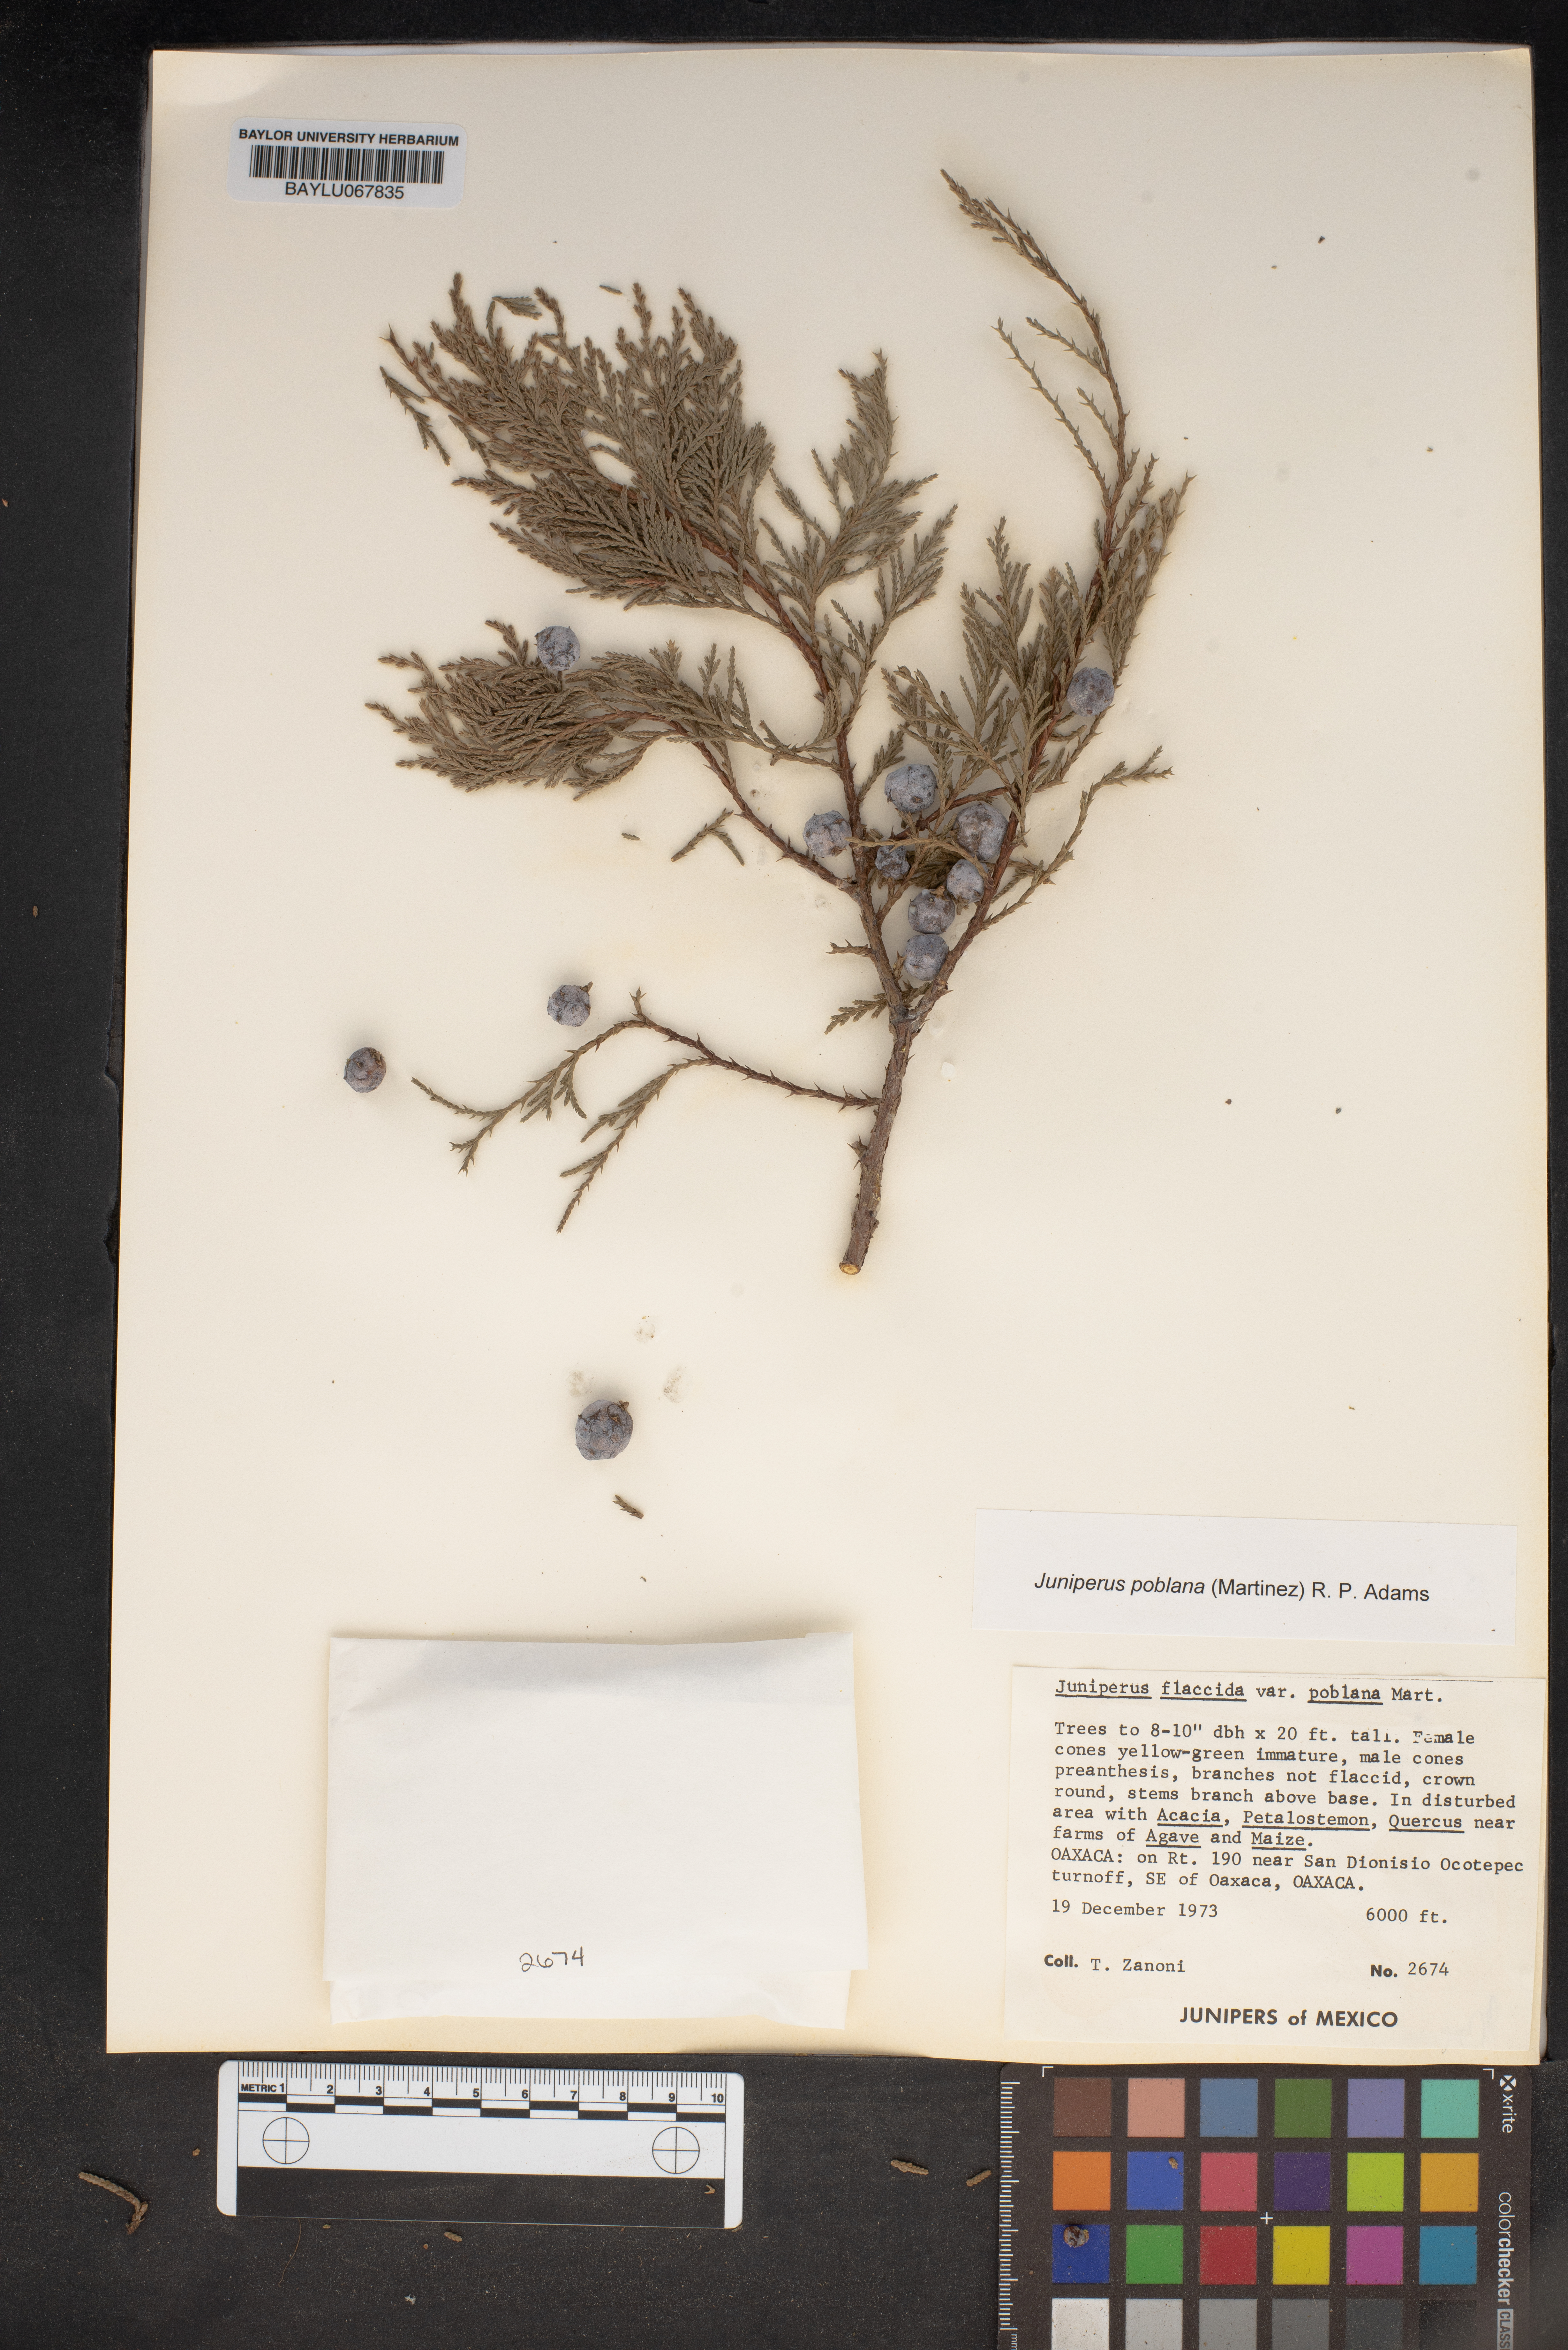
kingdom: Plantae
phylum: Tracheophyta
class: Pinopsida
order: Pinales
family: Cupressaceae
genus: Juniperus
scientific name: Juniperus flaccida
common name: Drooping juniper
